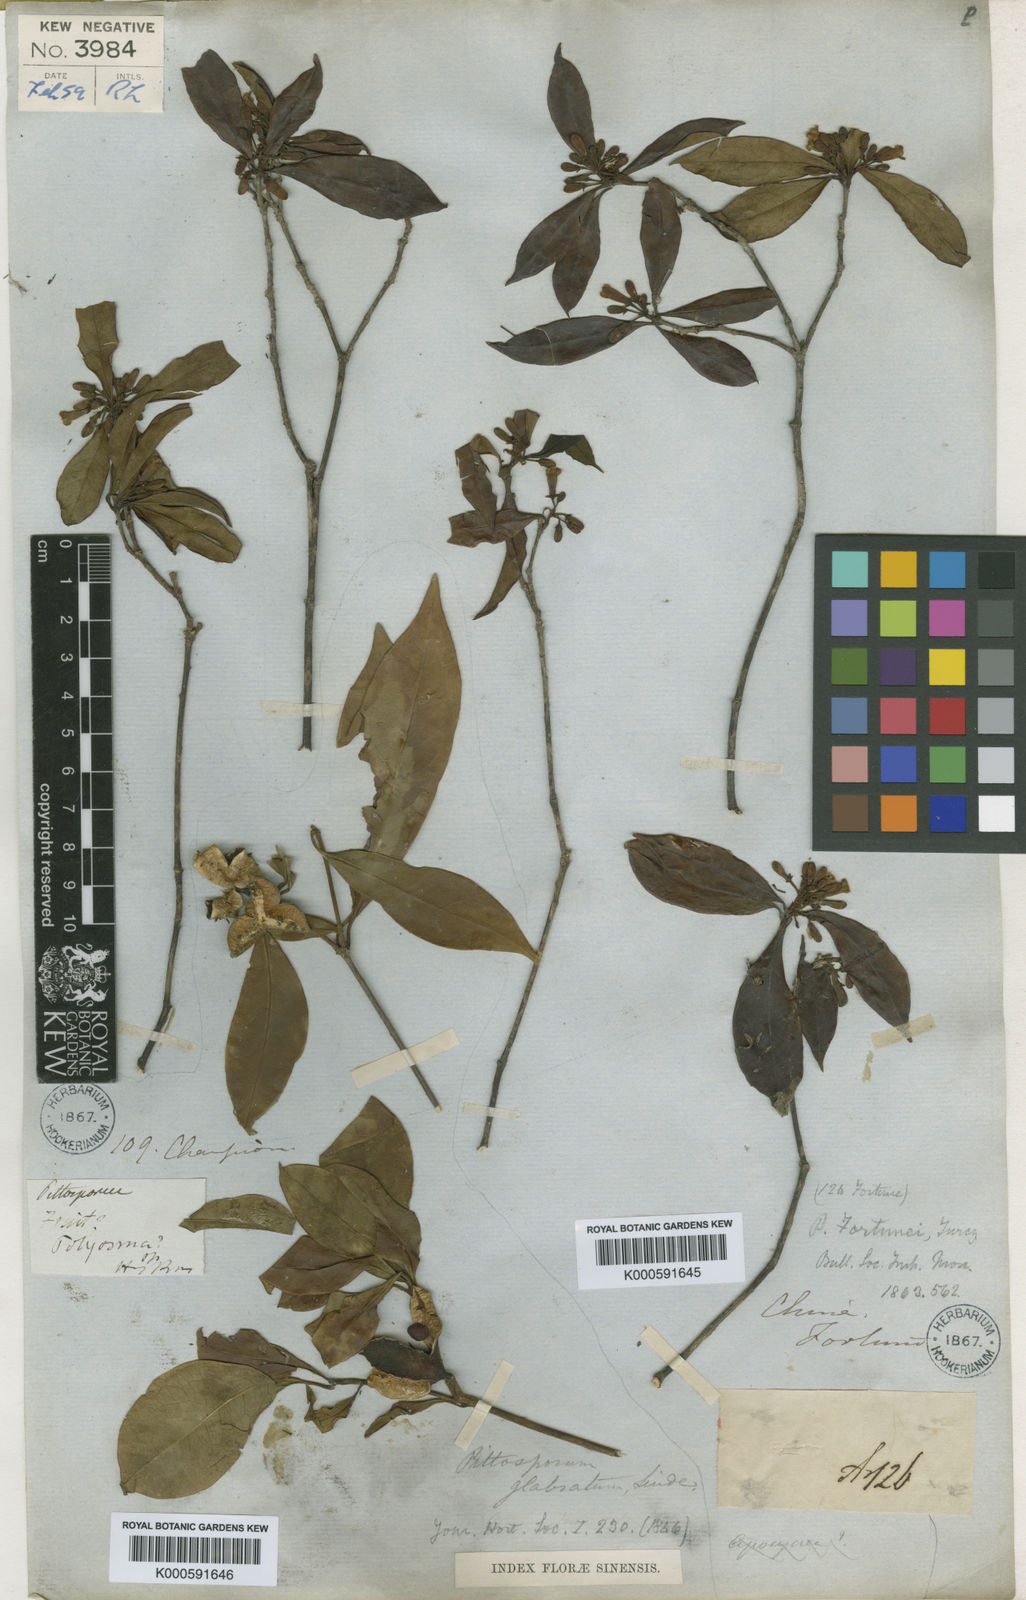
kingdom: Plantae
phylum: Tracheophyta
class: Magnoliopsida
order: Apiales
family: Pittosporaceae
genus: Pittosporum
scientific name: Pittosporum glabratum
